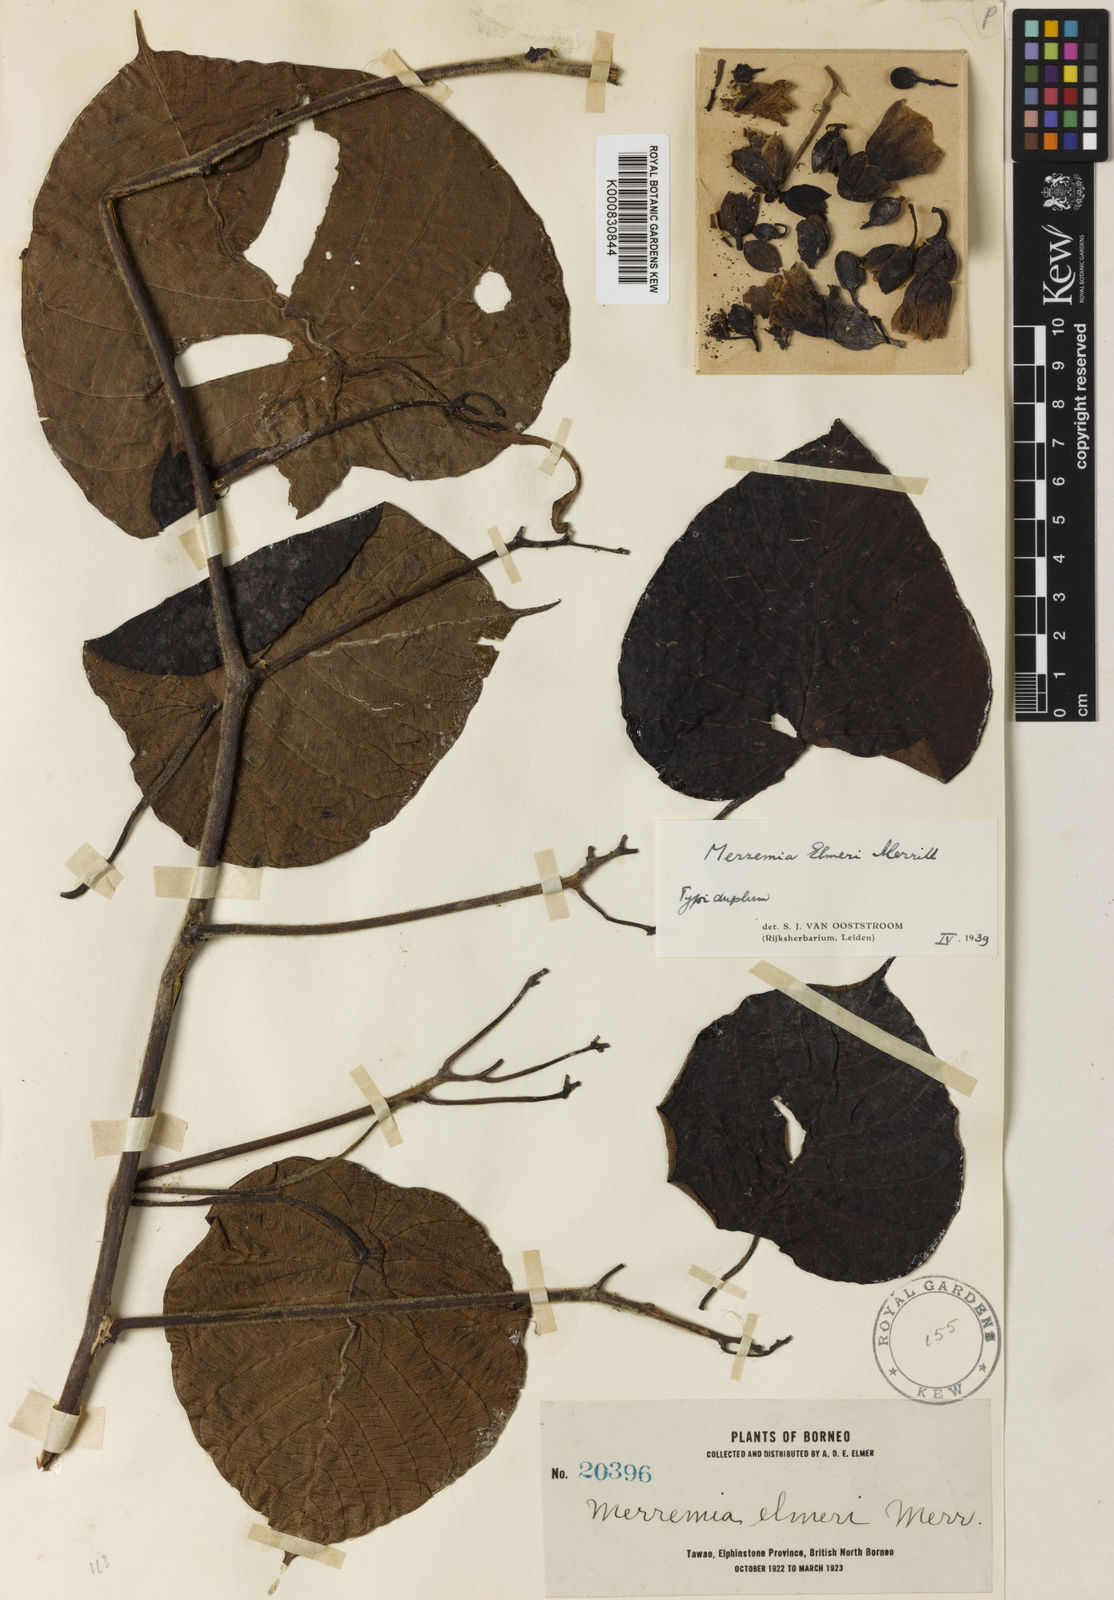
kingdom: Plantae
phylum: Tracheophyta
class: Magnoliopsida
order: Solanales
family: Convolvulaceae
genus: Decalobanthus
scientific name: Decalobanthus elmeri
